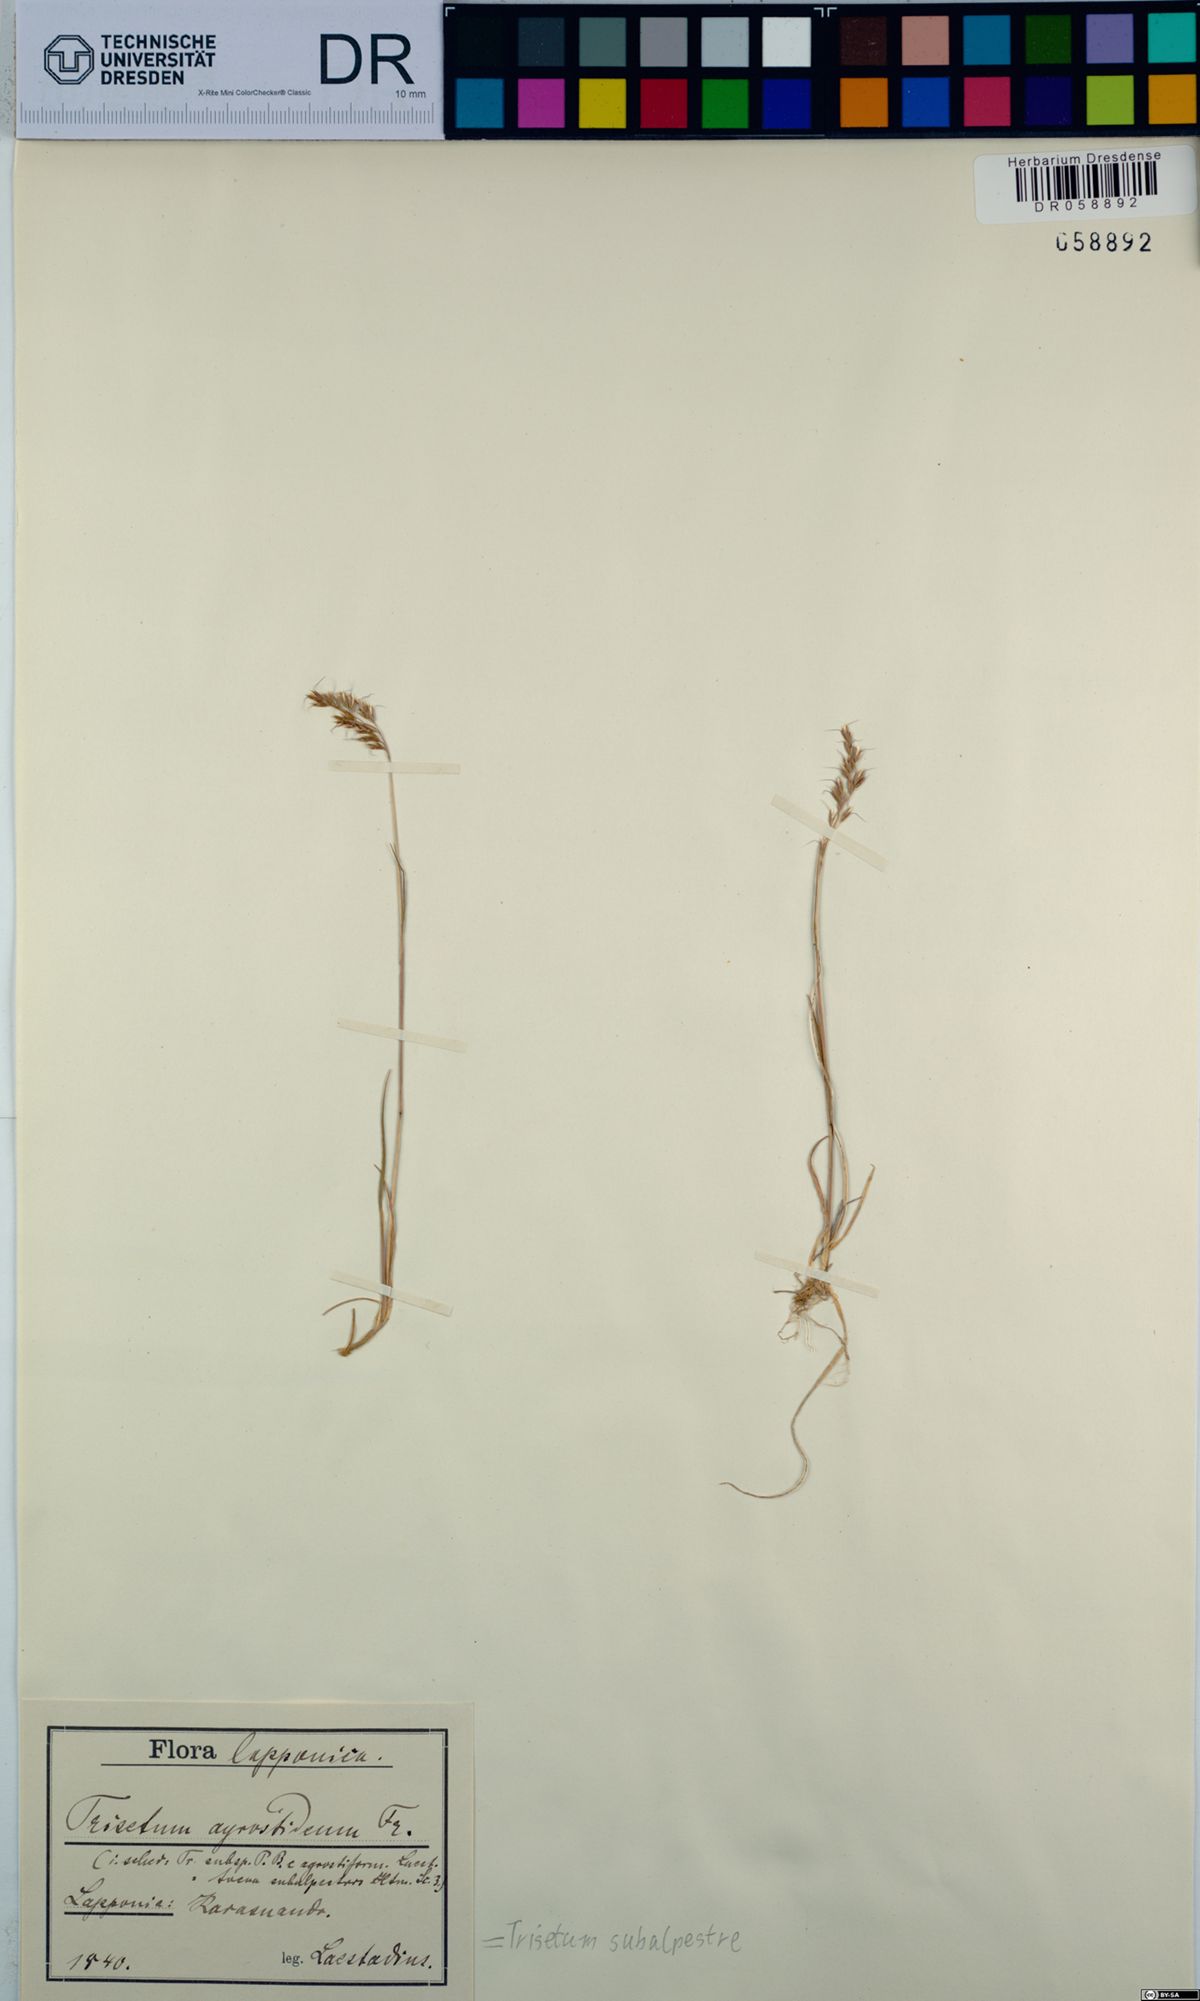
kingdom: Plantae
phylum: Tracheophyta
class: Liliopsida
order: Poales
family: Poaceae
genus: Koeleria
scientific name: Koeleria subalpestris
